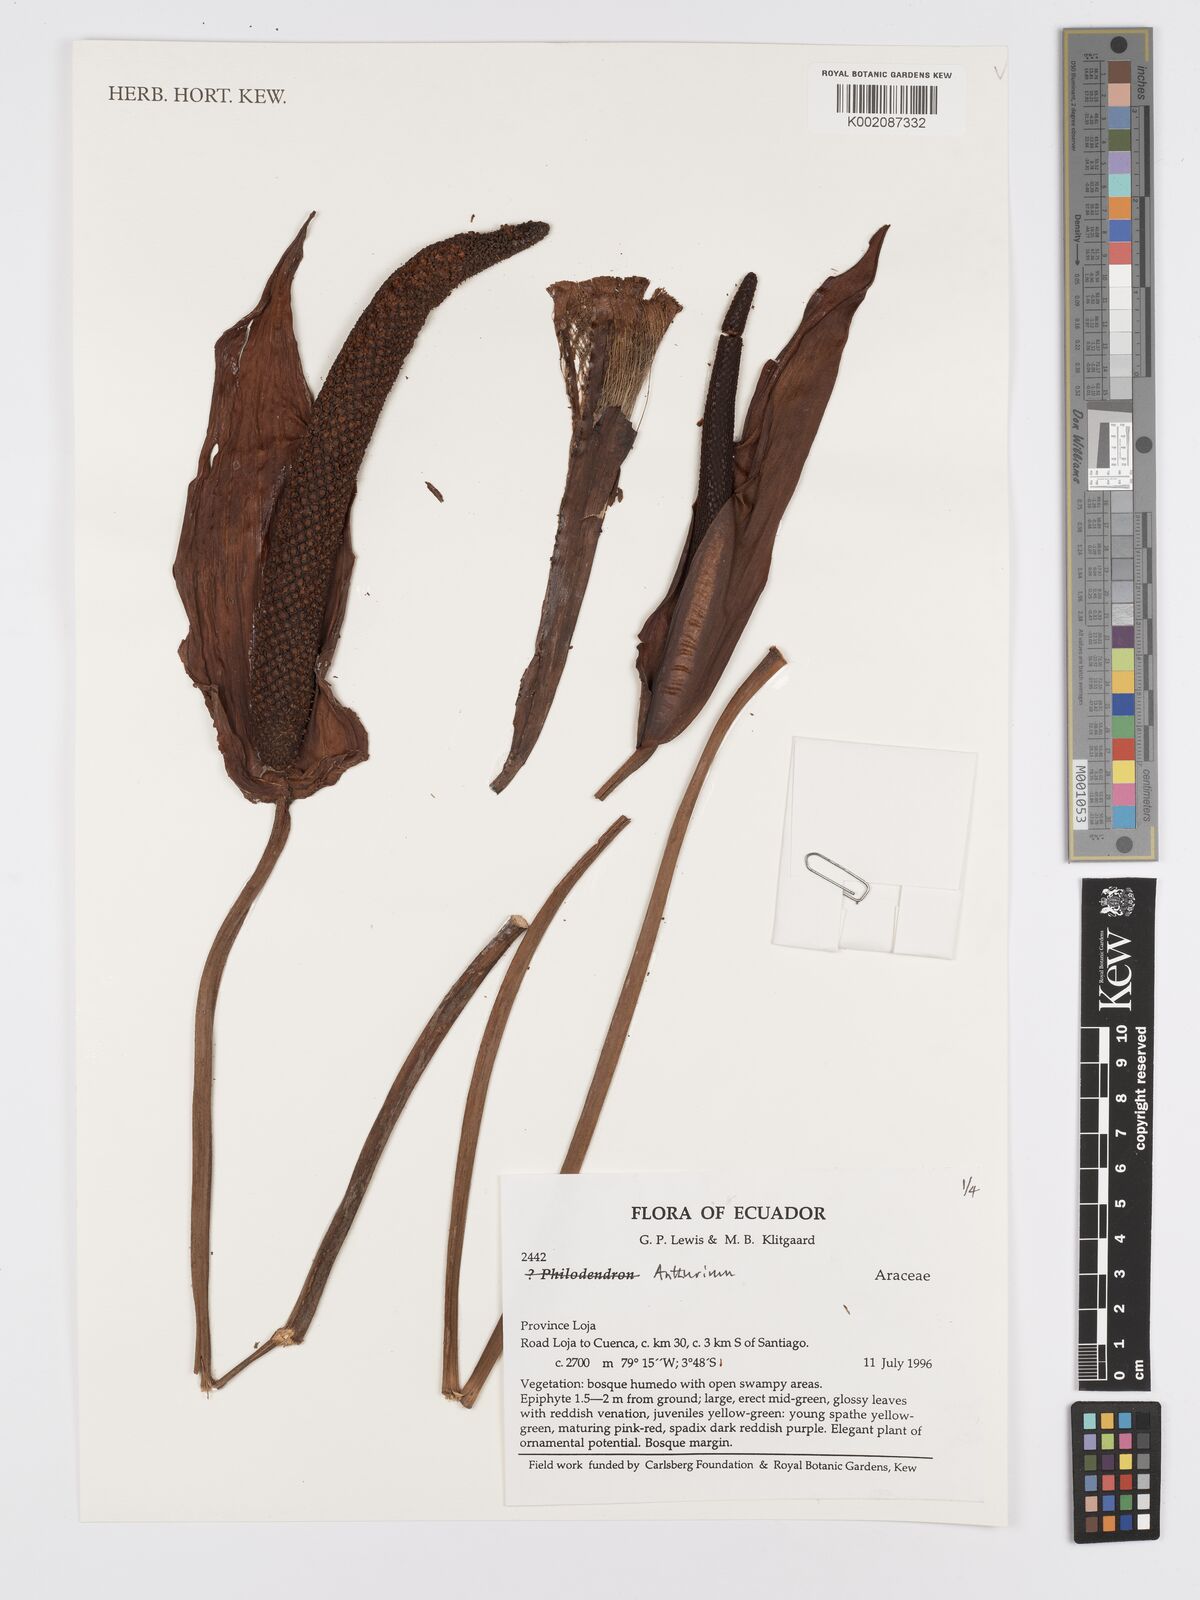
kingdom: Plantae
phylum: Tracheophyta
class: Liliopsida
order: Alismatales
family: Araceae
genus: Anthurium
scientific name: Anthurium
